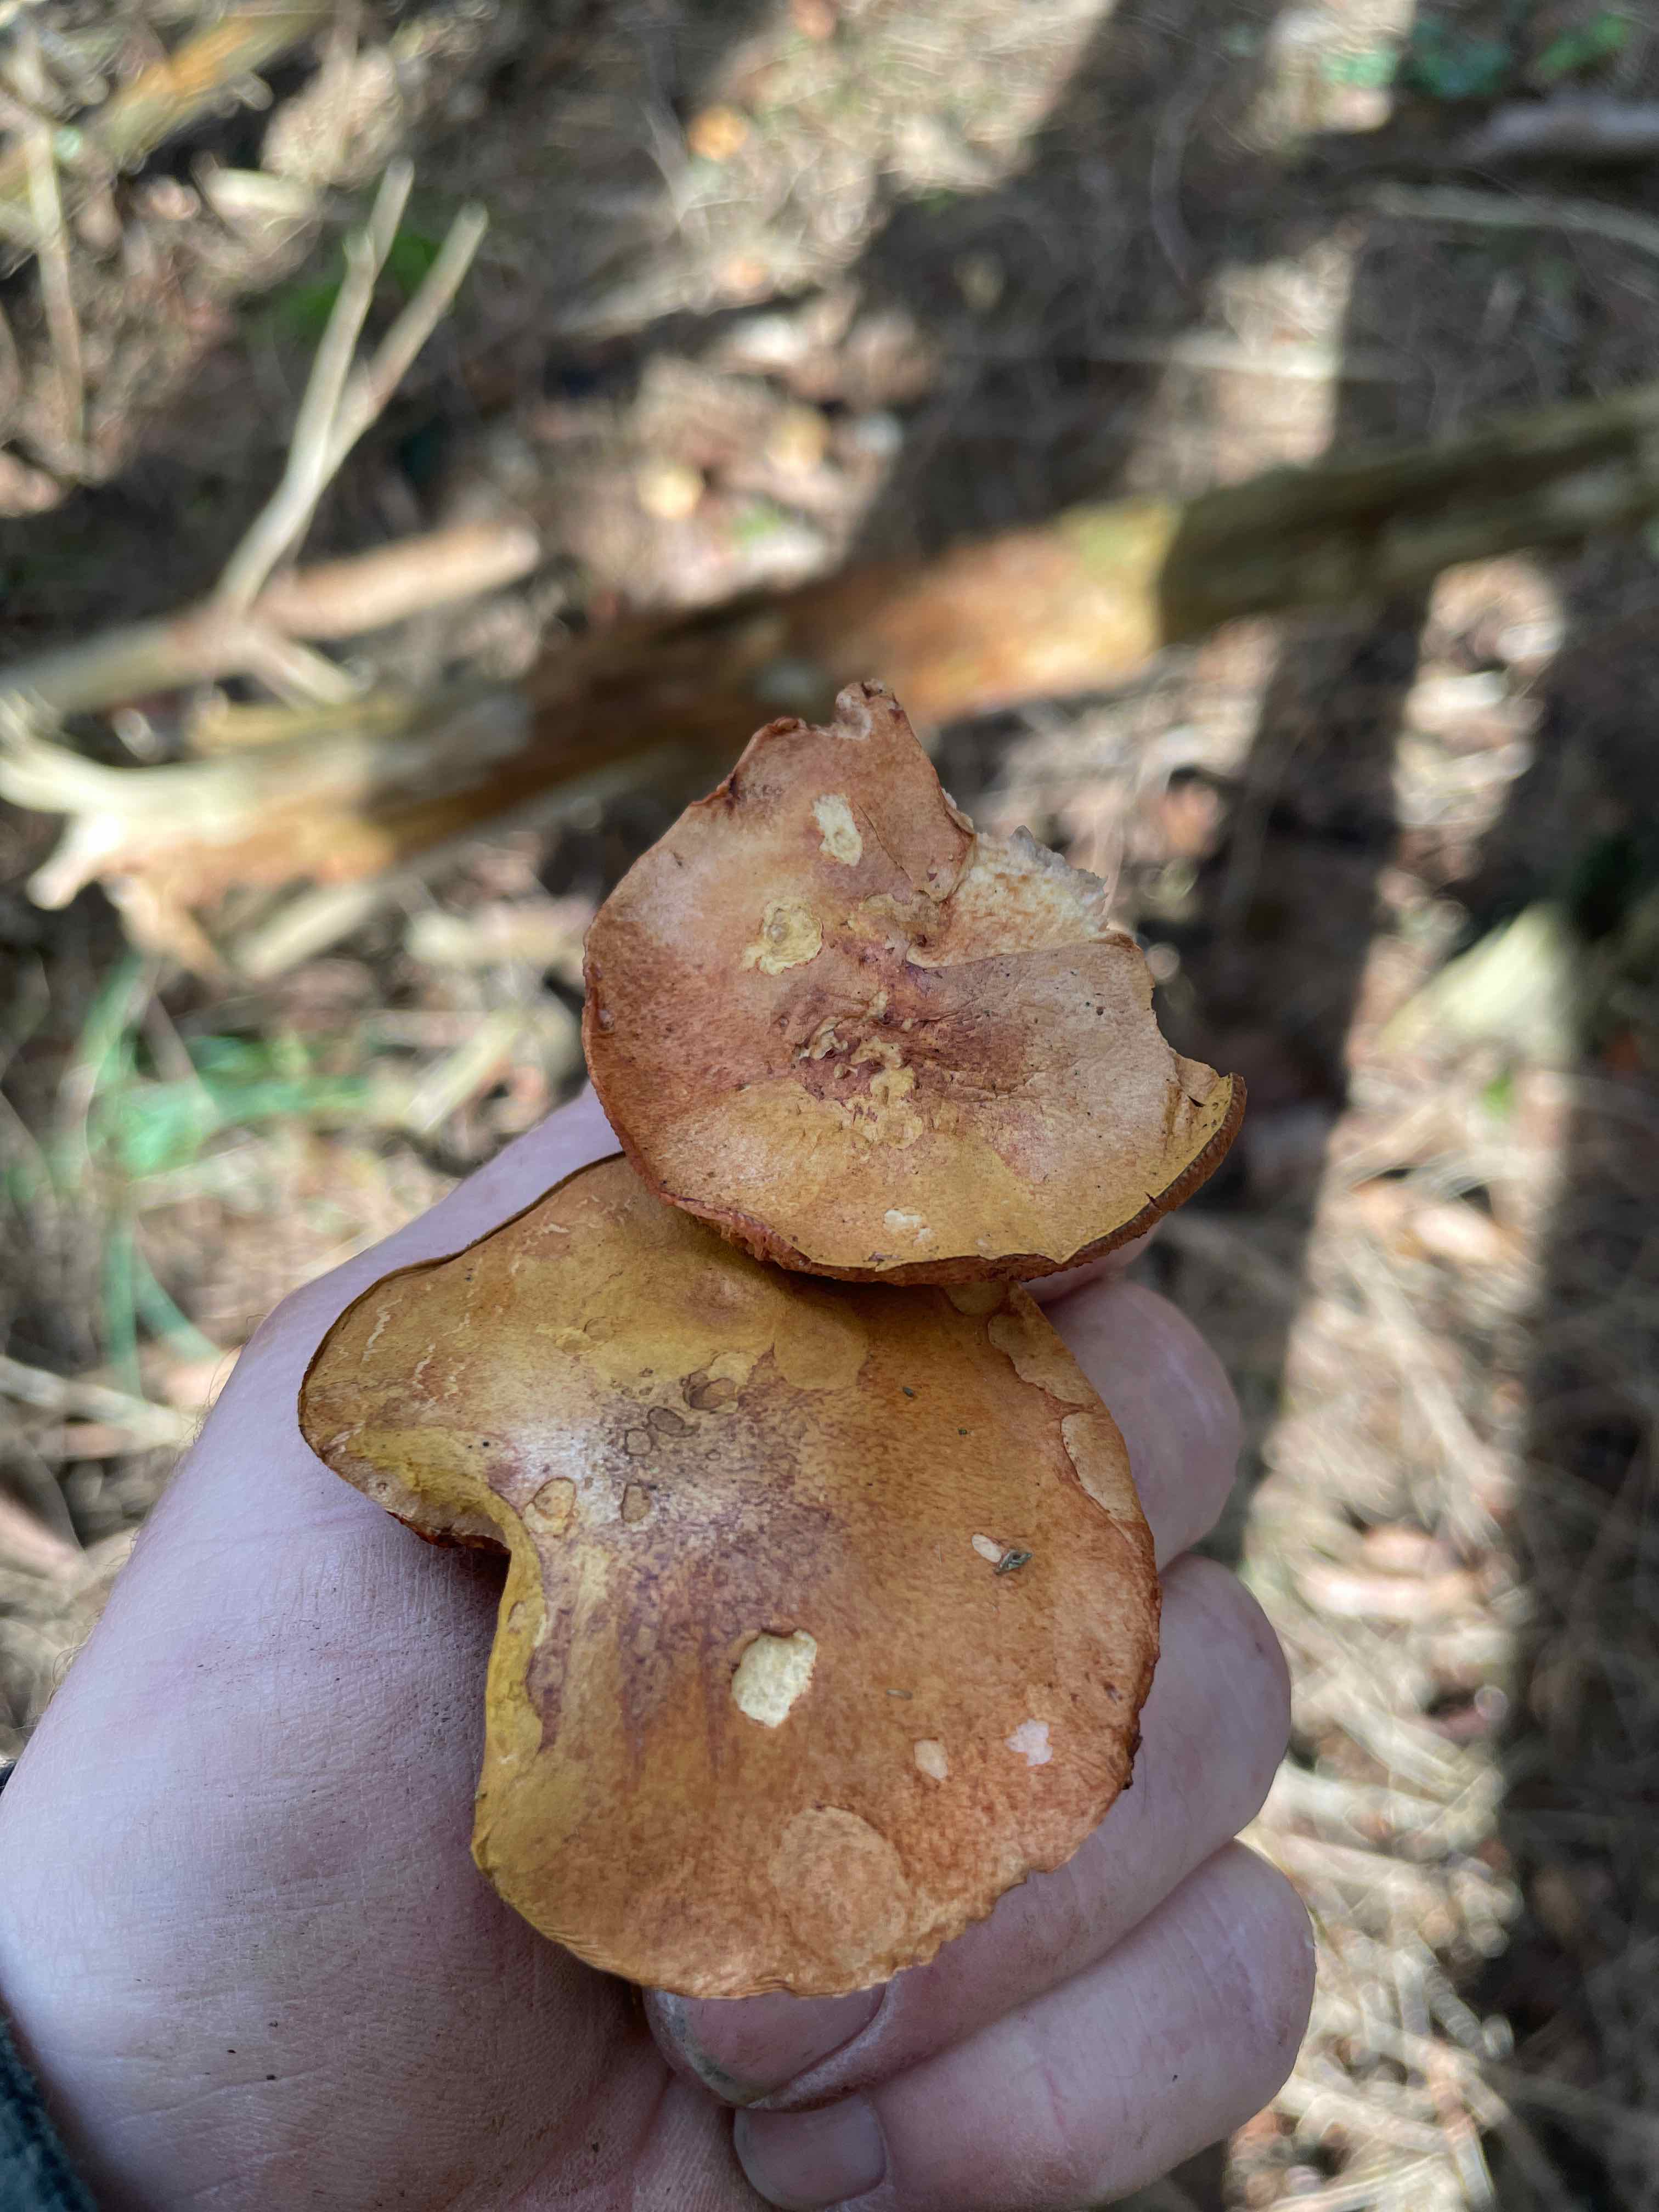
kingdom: Fungi
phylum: Basidiomycota
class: Agaricomycetes
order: Boletales
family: Boletaceae
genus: Chalciporus
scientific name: Chalciporus piperatus
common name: peberrørhat
